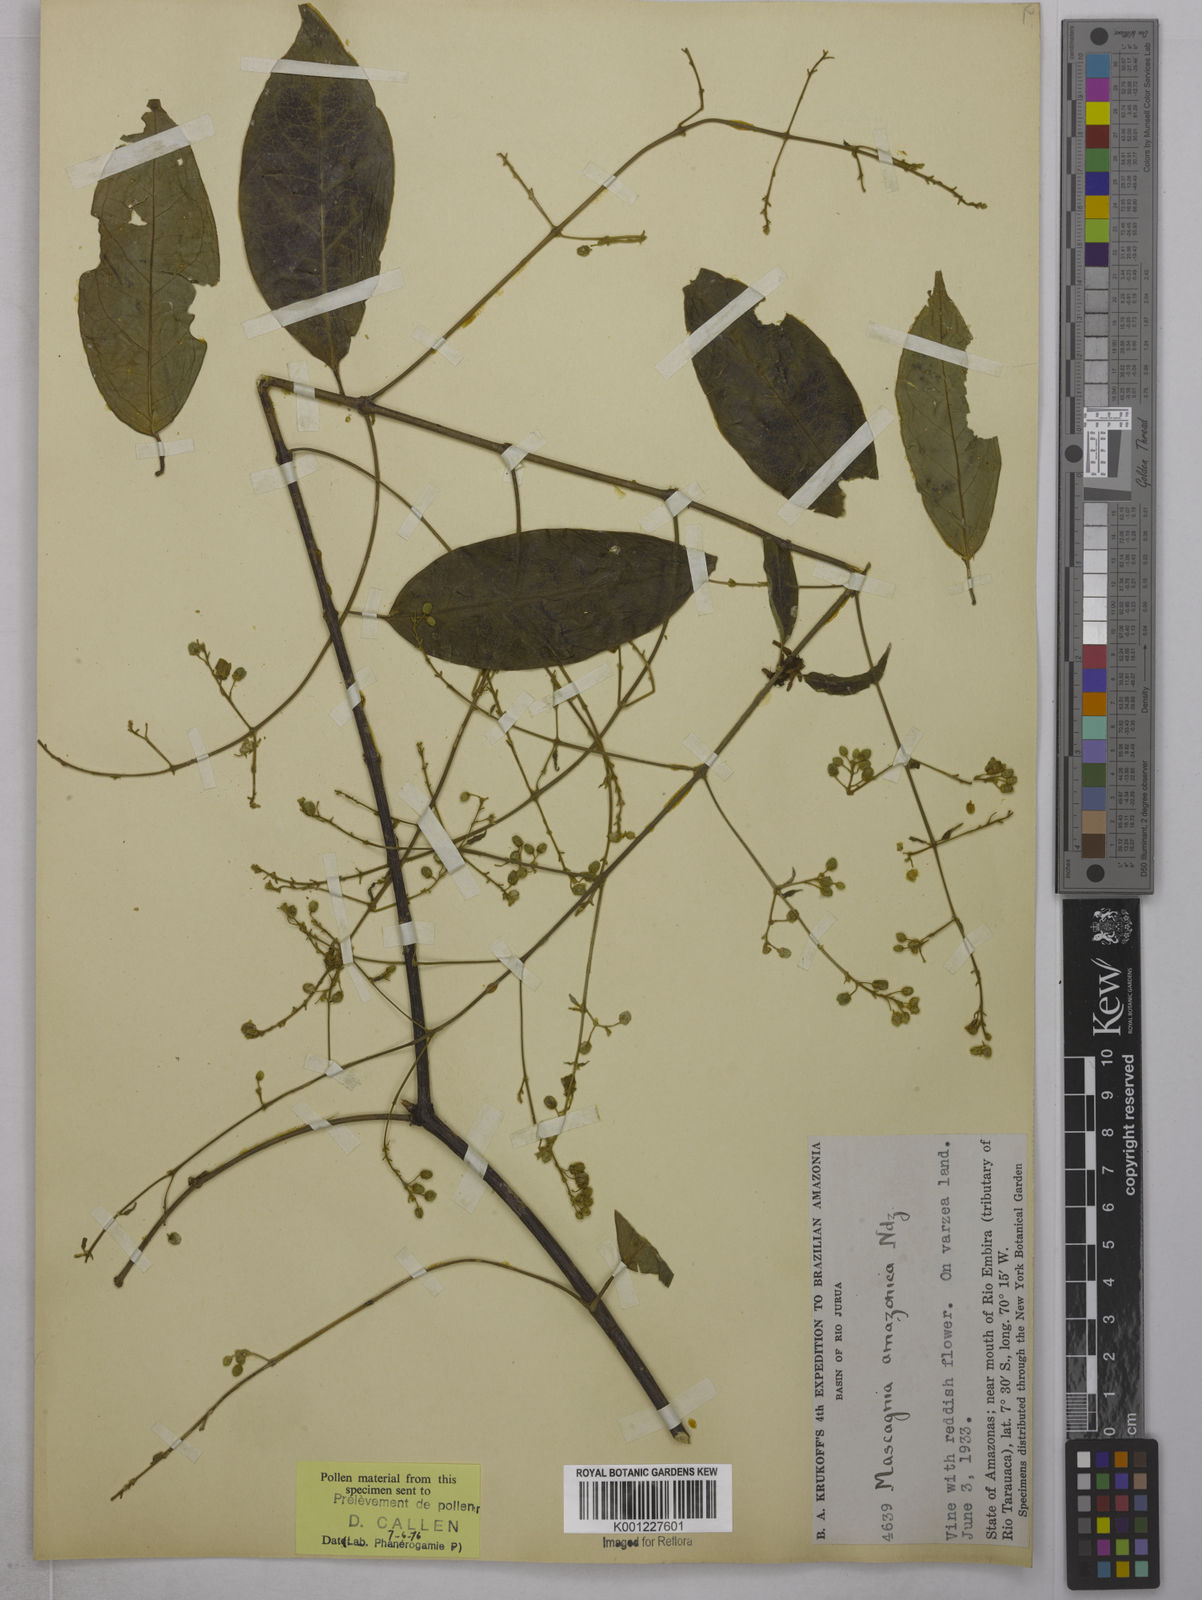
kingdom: Plantae
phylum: Tracheophyta
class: Magnoliopsida
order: Malpighiales
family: Malpighiaceae
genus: Mascagnia
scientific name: Mascagnia tenuifolia
